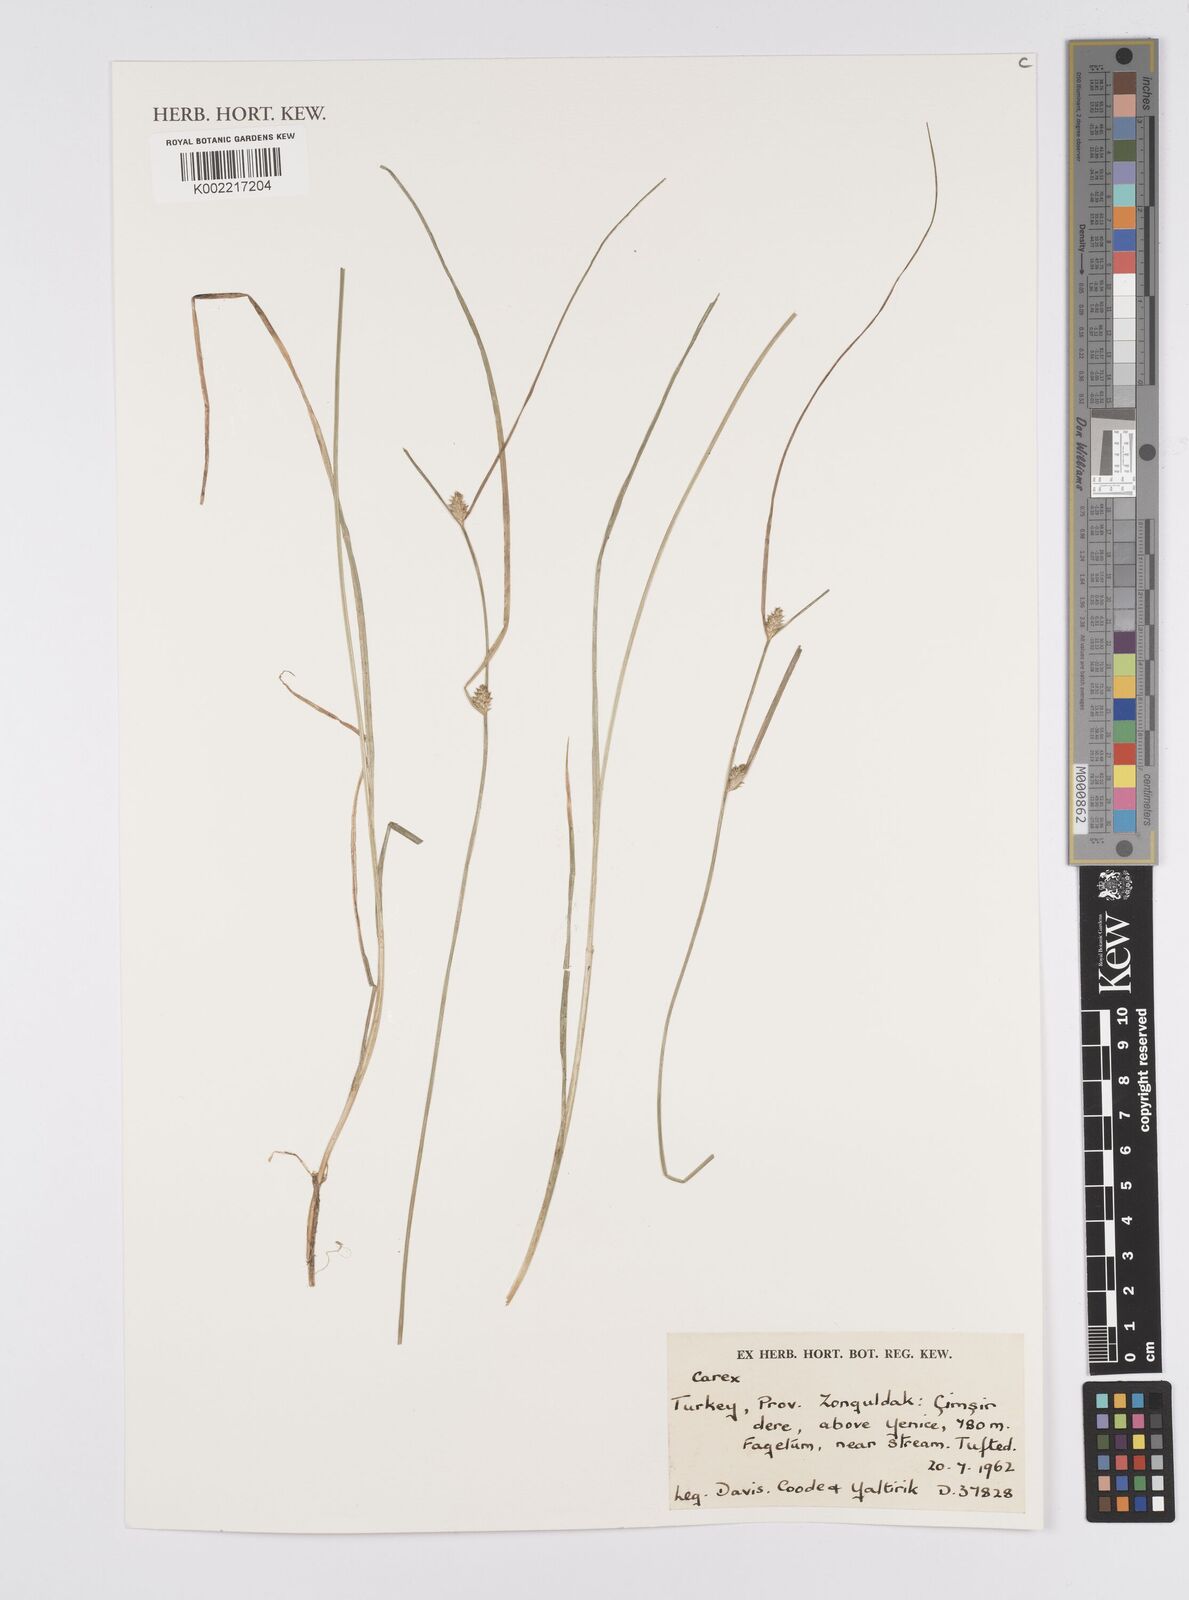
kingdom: Plantae
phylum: Tracheophyta
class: Liliopsida
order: Poales
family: Cyperaceae
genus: Carex
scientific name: Carex
